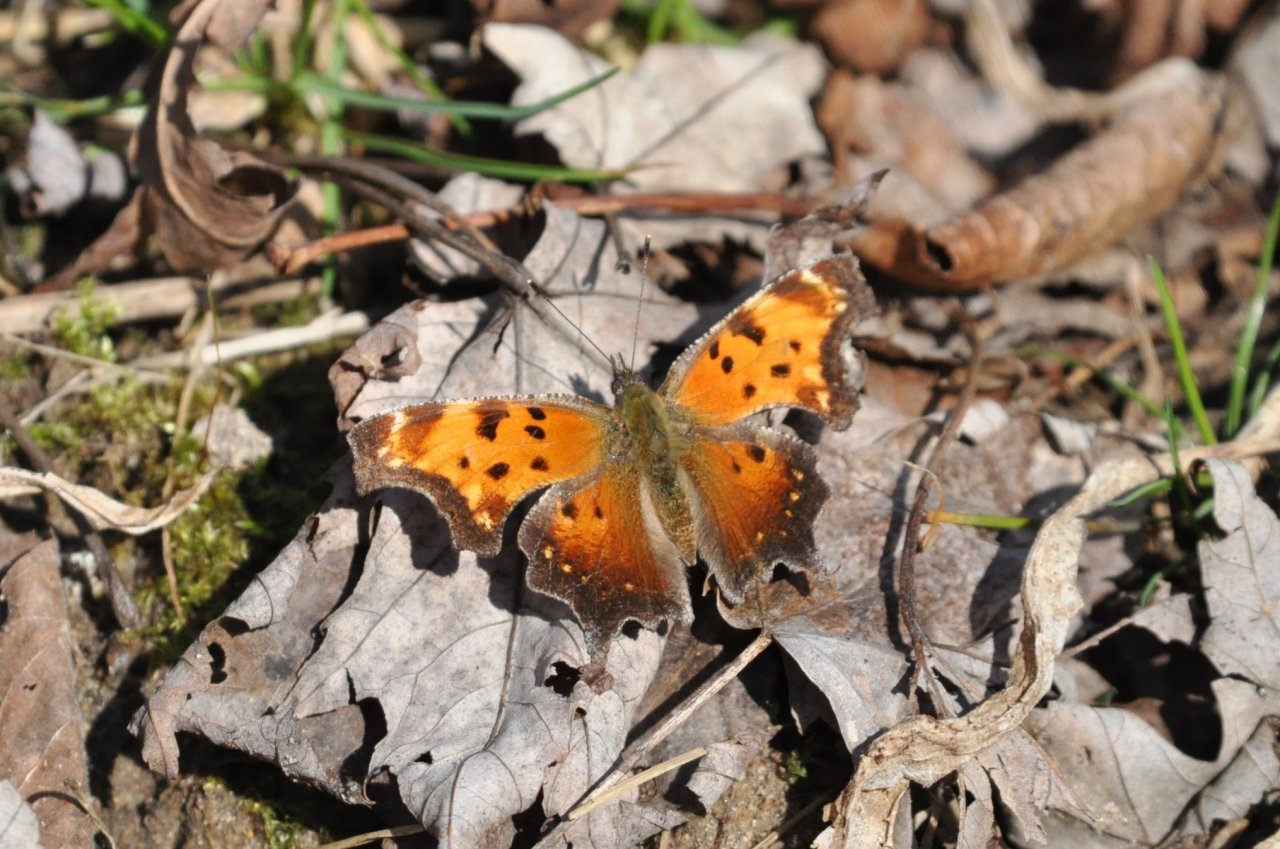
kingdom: Animalia
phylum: Arthropoda
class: Insecta
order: Lepidoptera
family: Nymphalidae
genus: Polygonia
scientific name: Polygonia progne
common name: Gray Comma
